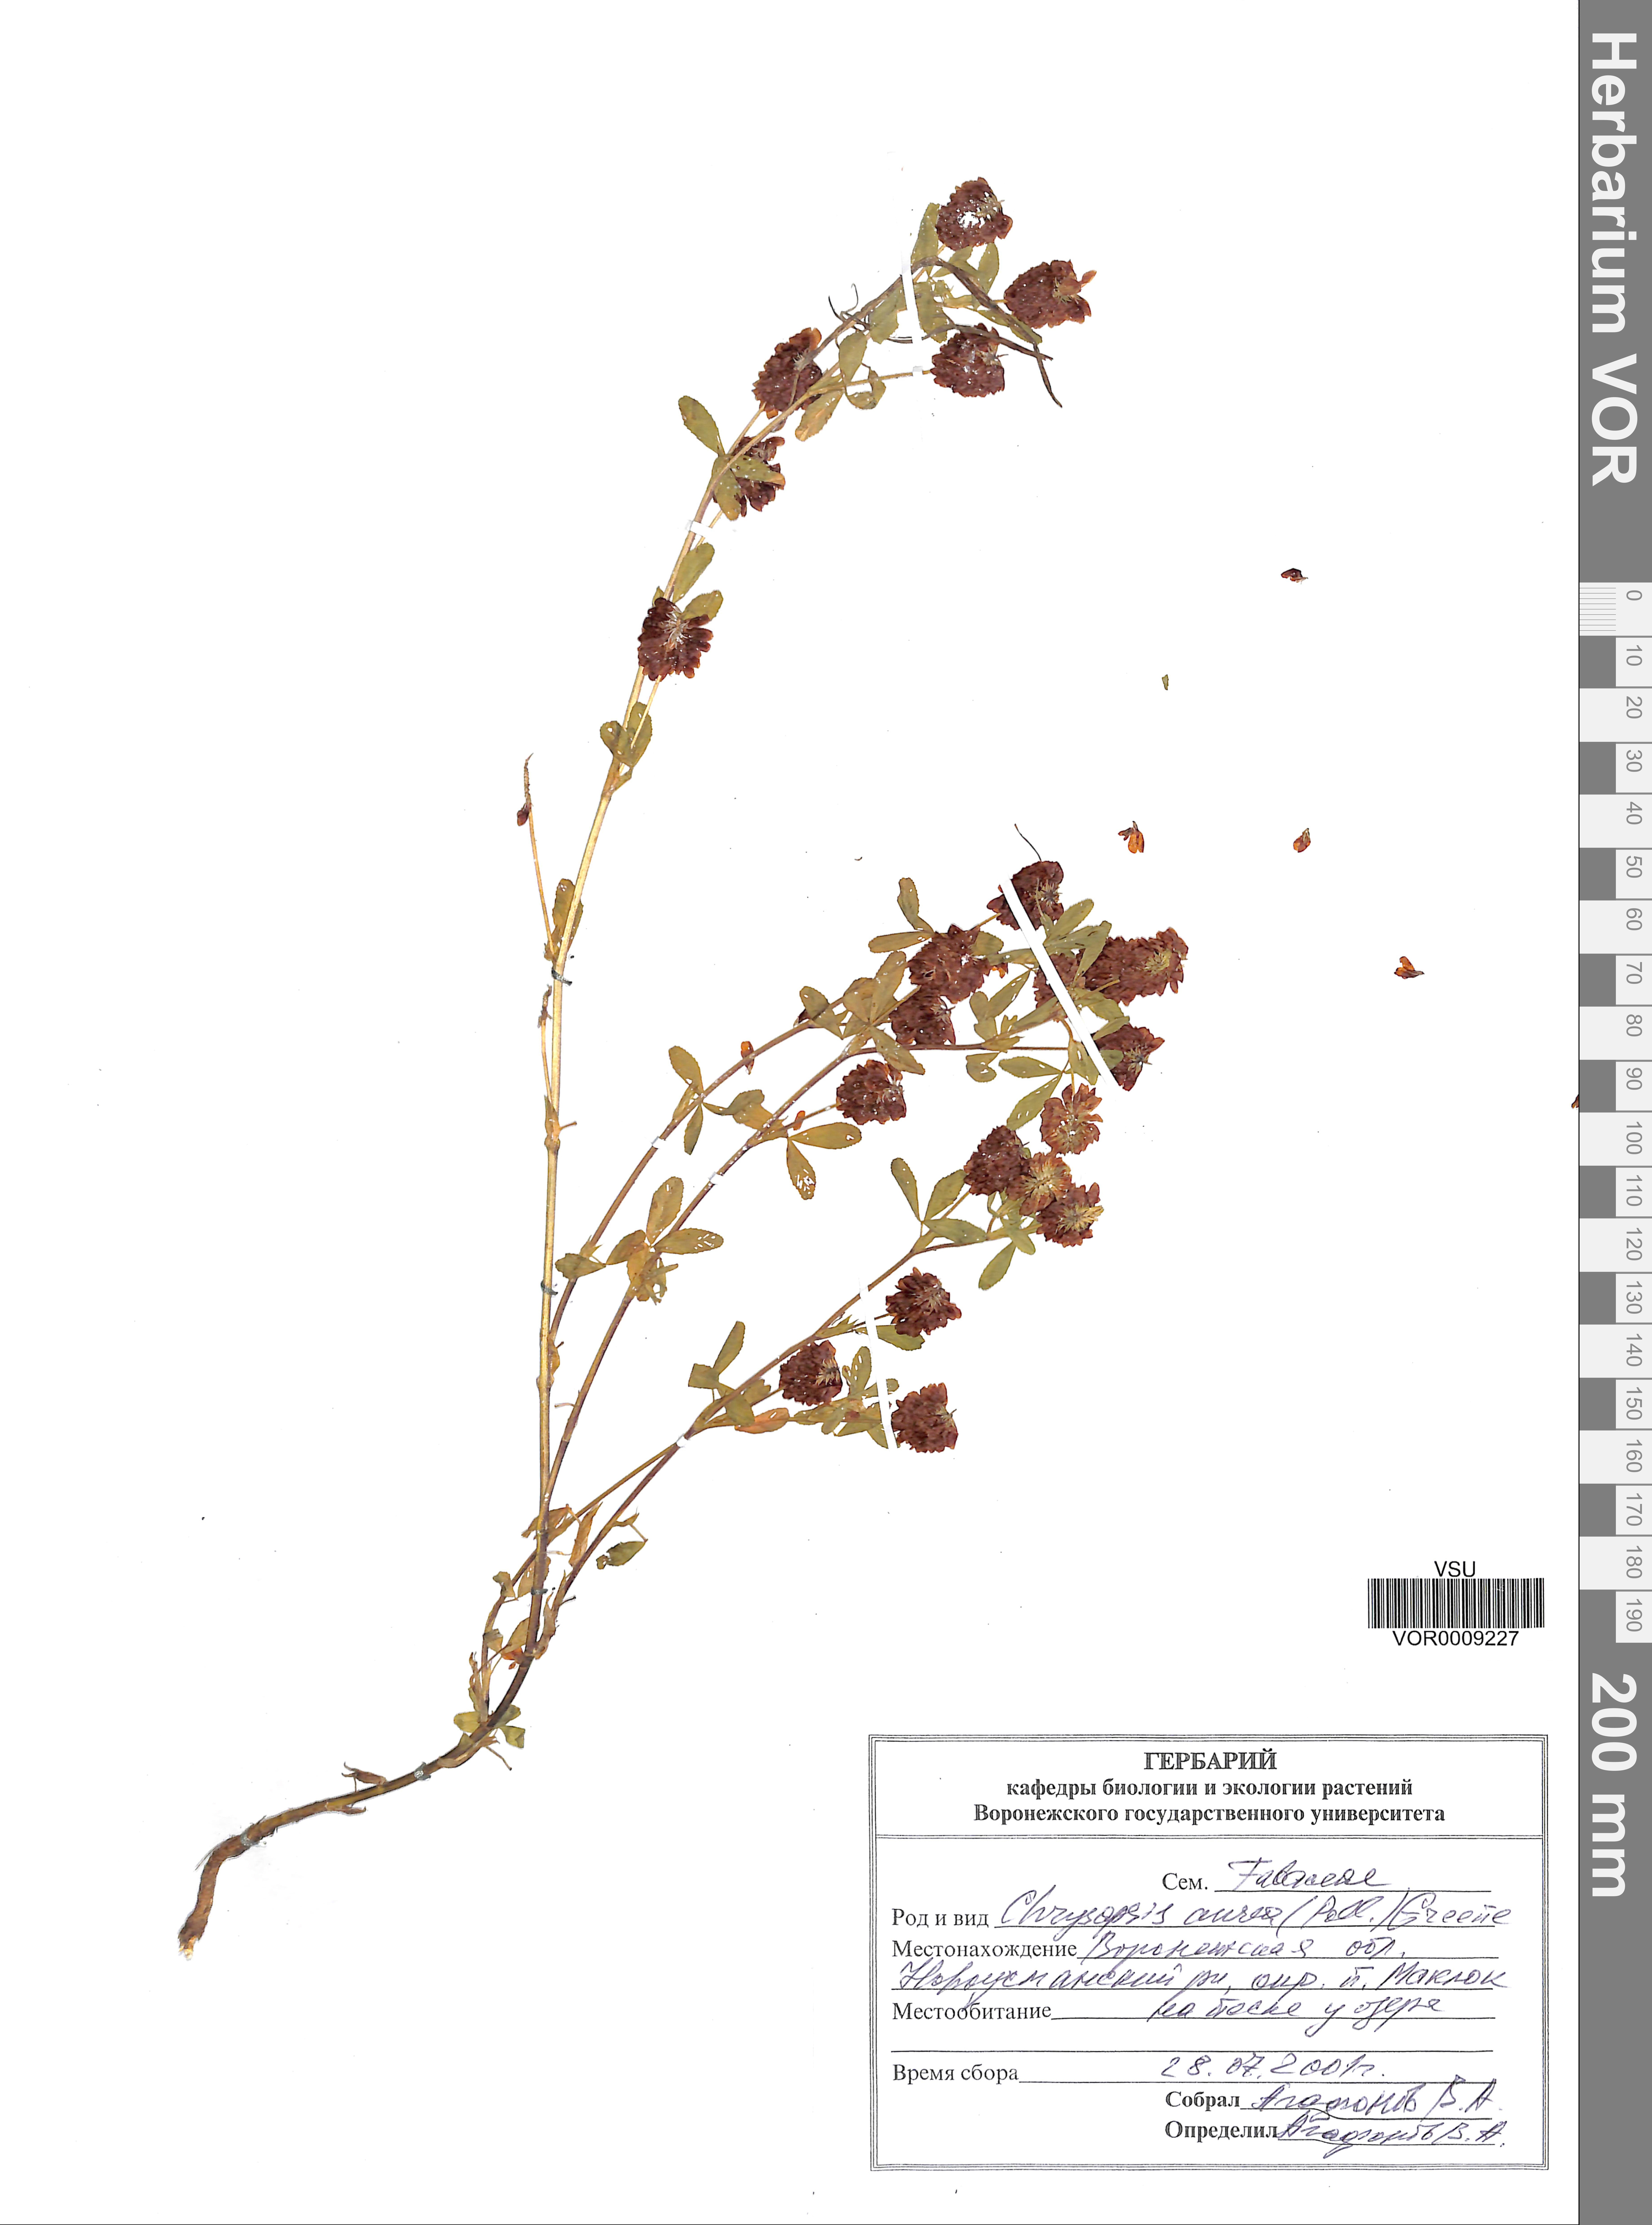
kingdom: Plantae
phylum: Tracheophyta
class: Magnoliopsida
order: Fabales
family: Fabaceae
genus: Trifolium
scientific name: Trifolium aureum
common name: Golden clover
